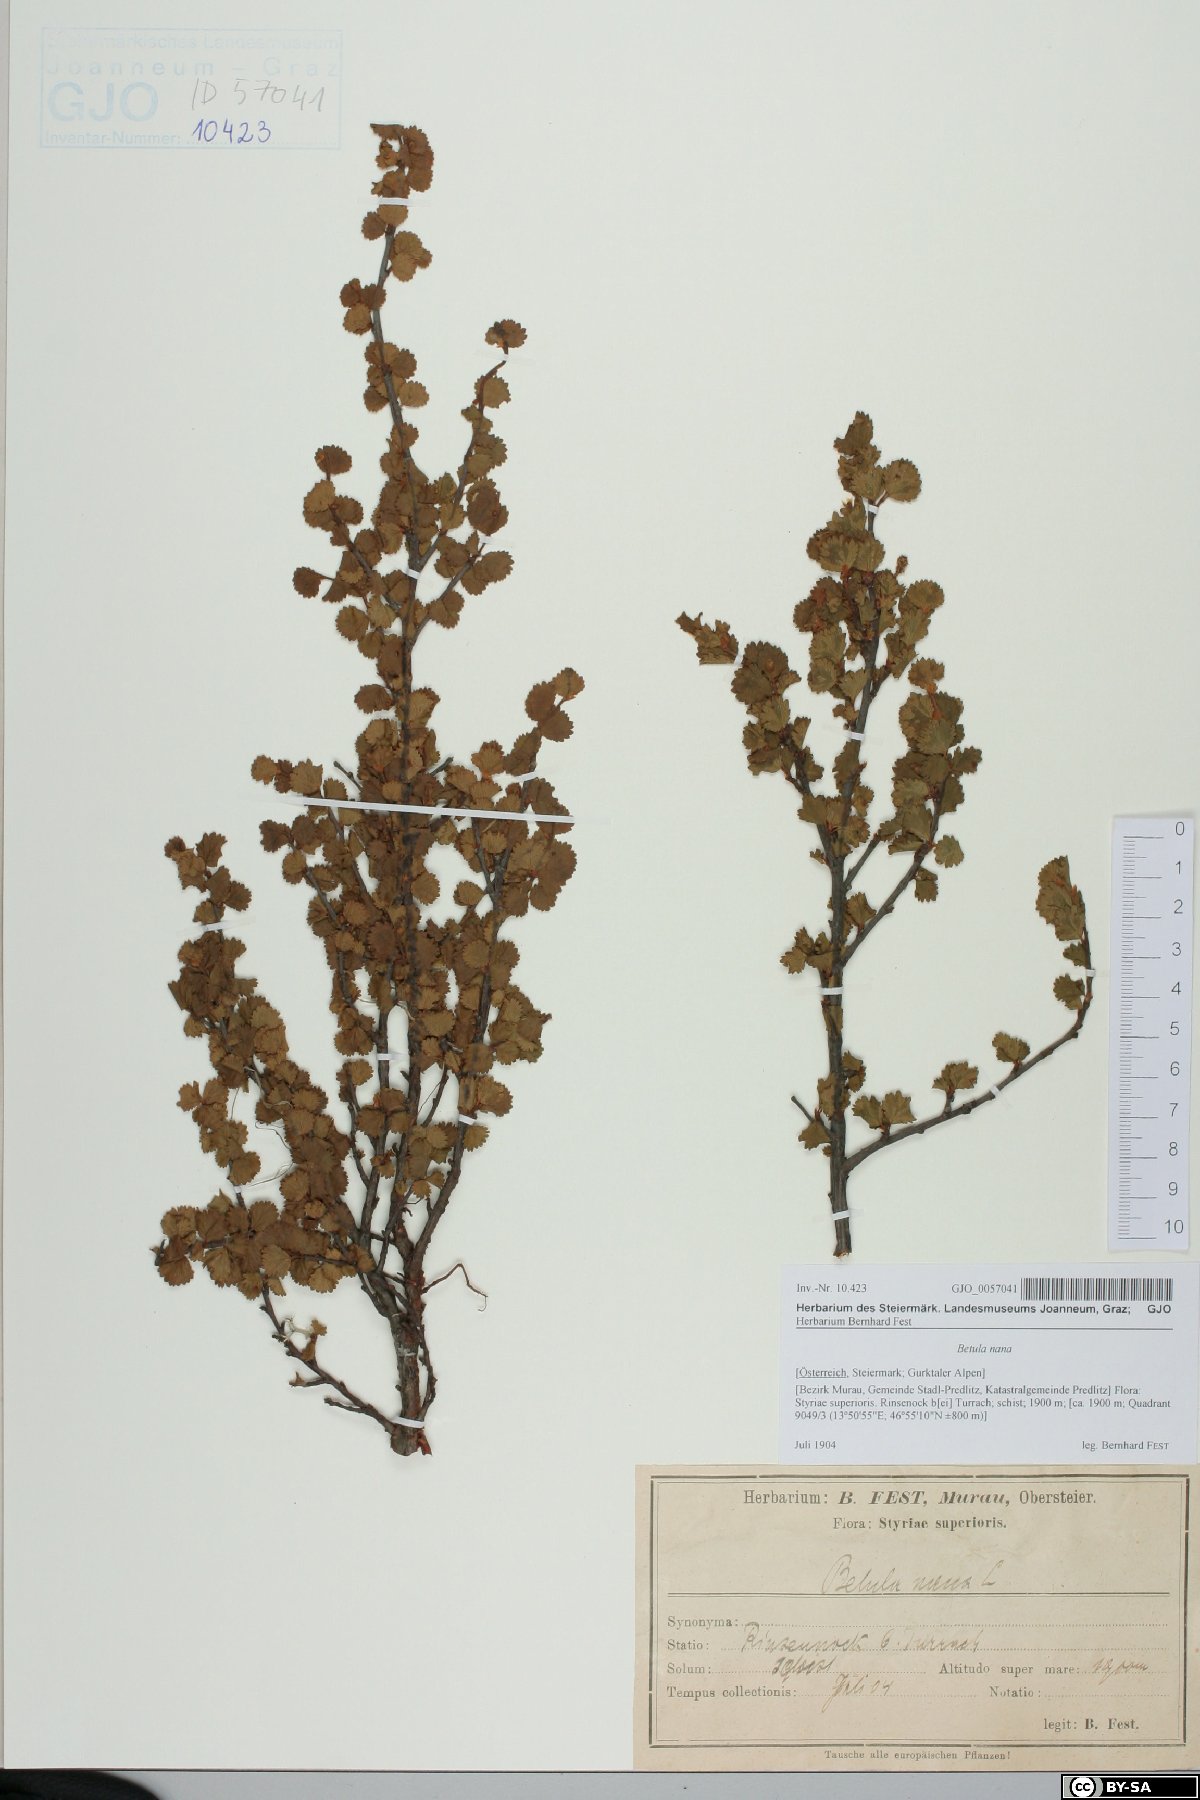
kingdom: Plantae
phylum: Tracheophyta
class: Magnoliopsida
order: Fagales
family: Betulaceae
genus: Betula
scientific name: Betula nana
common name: Arctic dwarf birch
